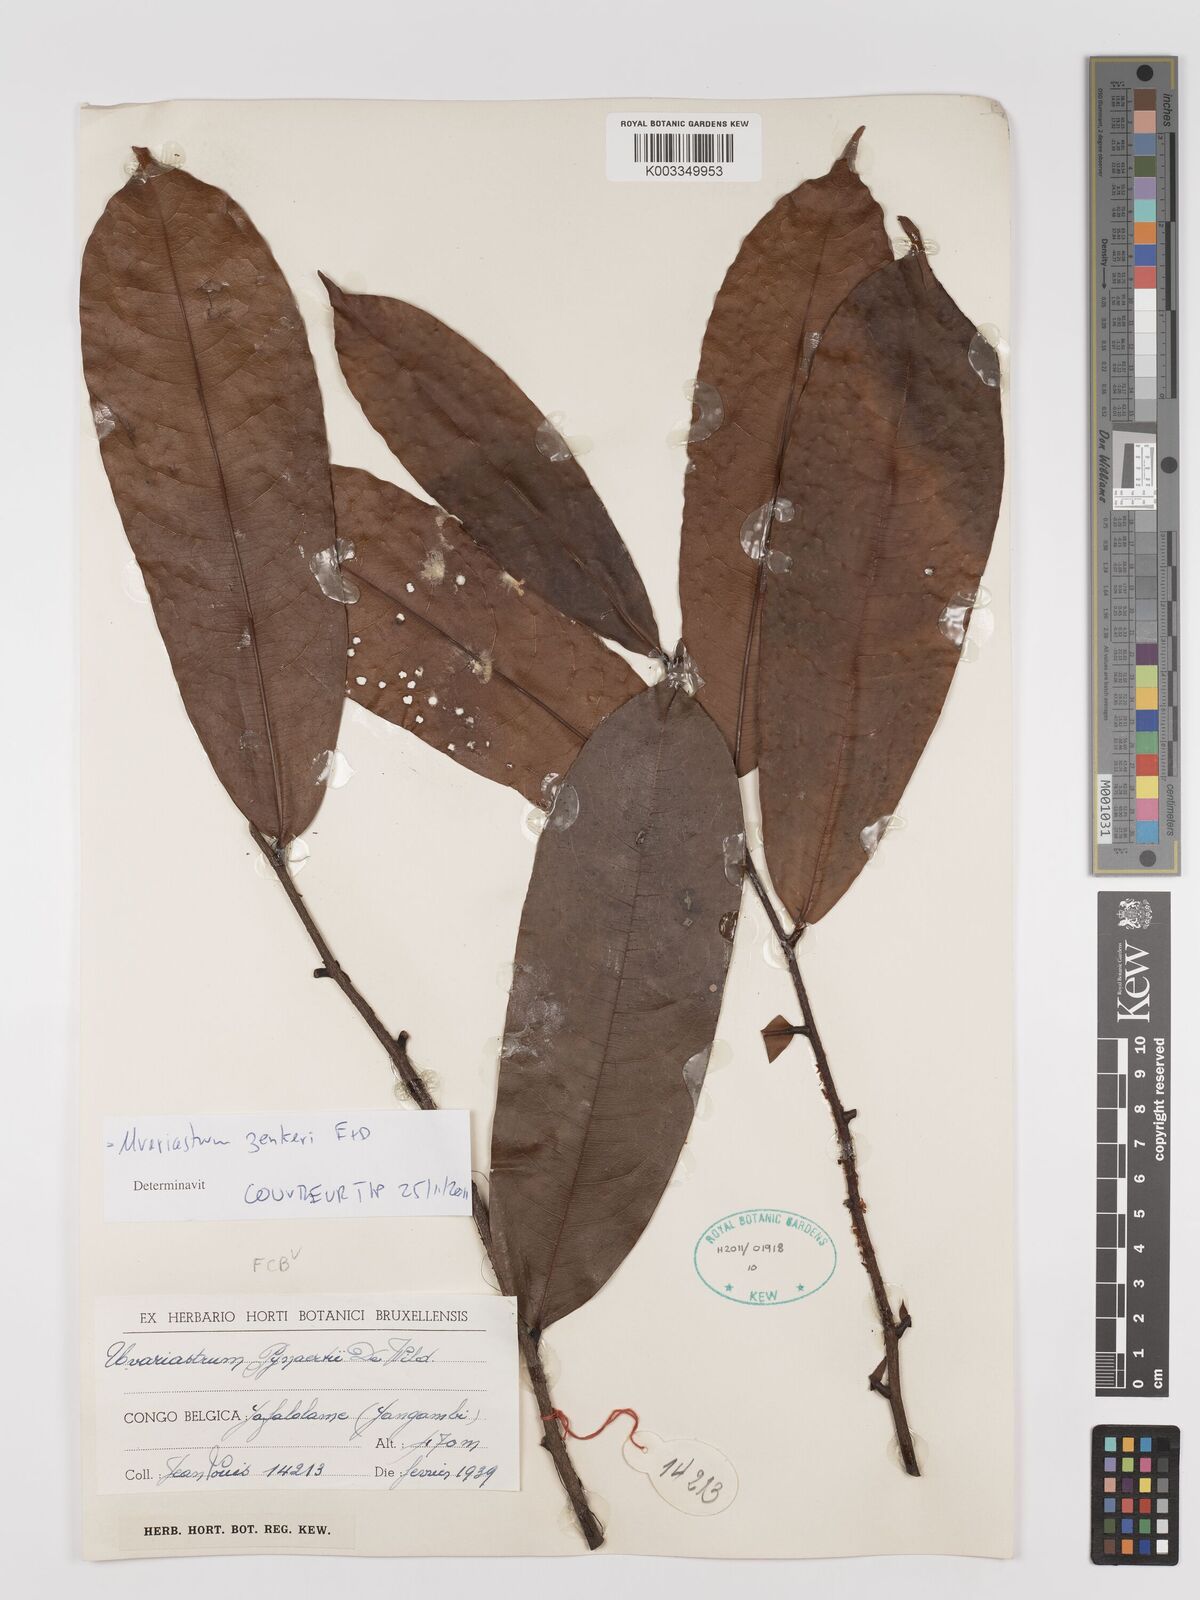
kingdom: Plantae
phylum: Tracheophyta
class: Magnoliopsida
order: Magnoliales
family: Annonaceae
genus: Uvariastrum
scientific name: Uvariastrum zenkeri
